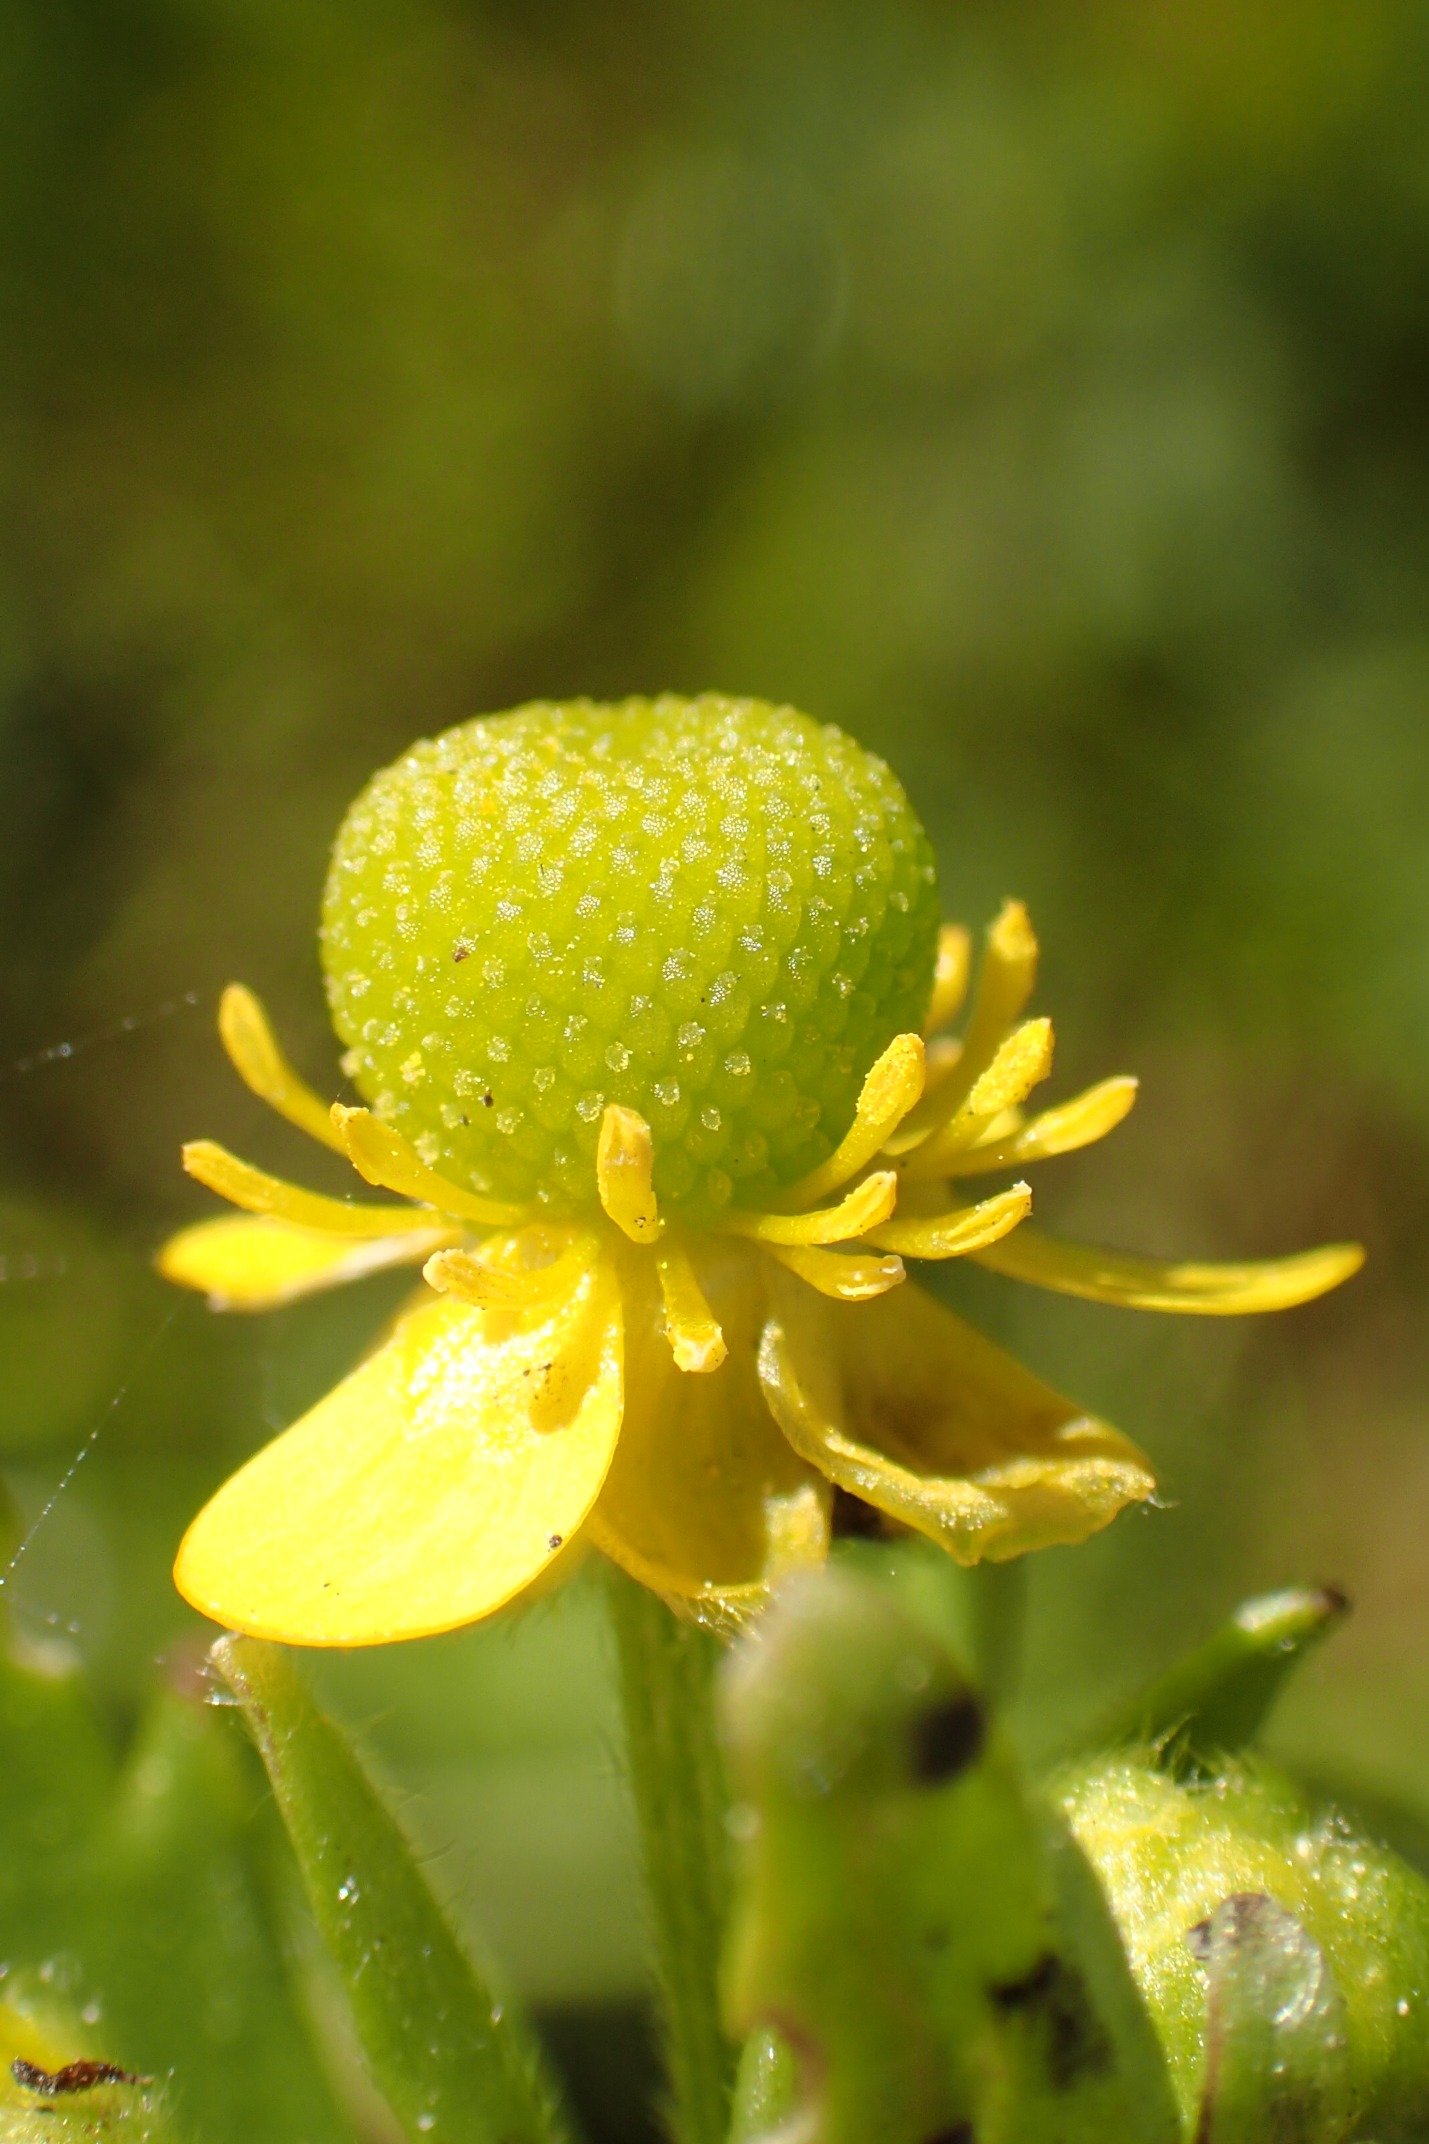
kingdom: Plantae
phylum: Tracheophyta
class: Magnoliopsida
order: Ranunculales
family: Ranunculaceae
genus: Ranunculus
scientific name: Ranunculus sceleratus
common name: Tigger-ranunkel
